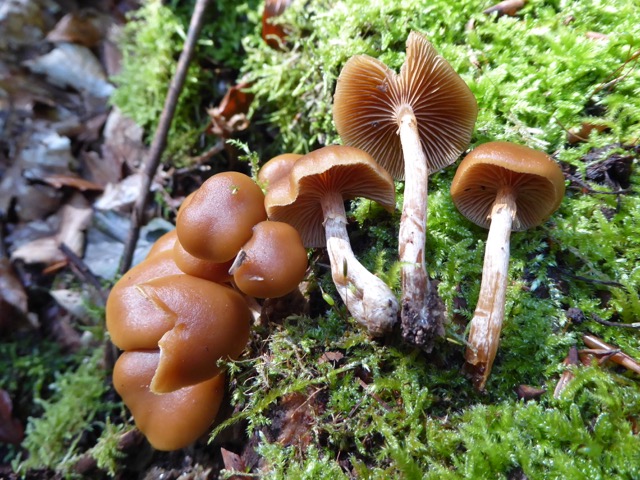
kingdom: Fungi
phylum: Basidiomycota
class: Agaricomycetes
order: Agaricales
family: Hymenogastraceae
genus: Galerina
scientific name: Galerina marginata
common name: randbæltet hjelmhat
